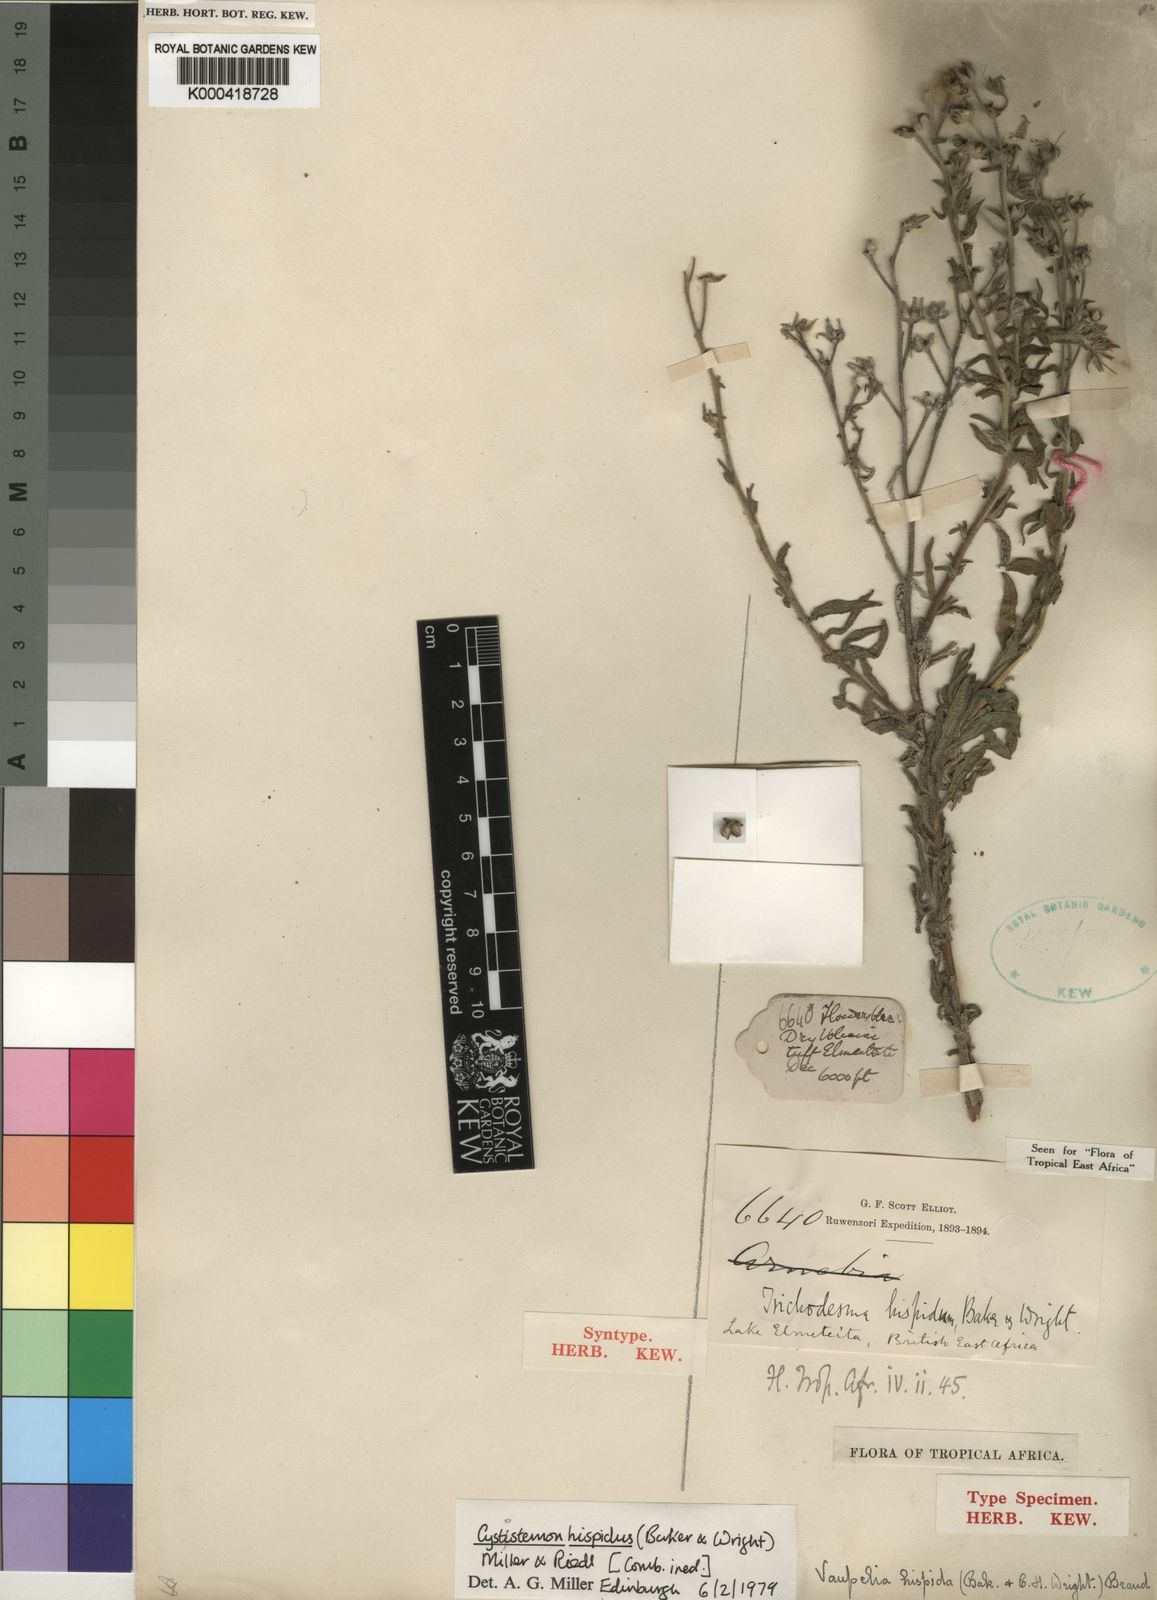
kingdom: Plantae
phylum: Tracheophyta
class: Magnoliopsida
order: Boraginales
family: Boraginaceae
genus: Cystostemon
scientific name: Cystostemon hispidus
